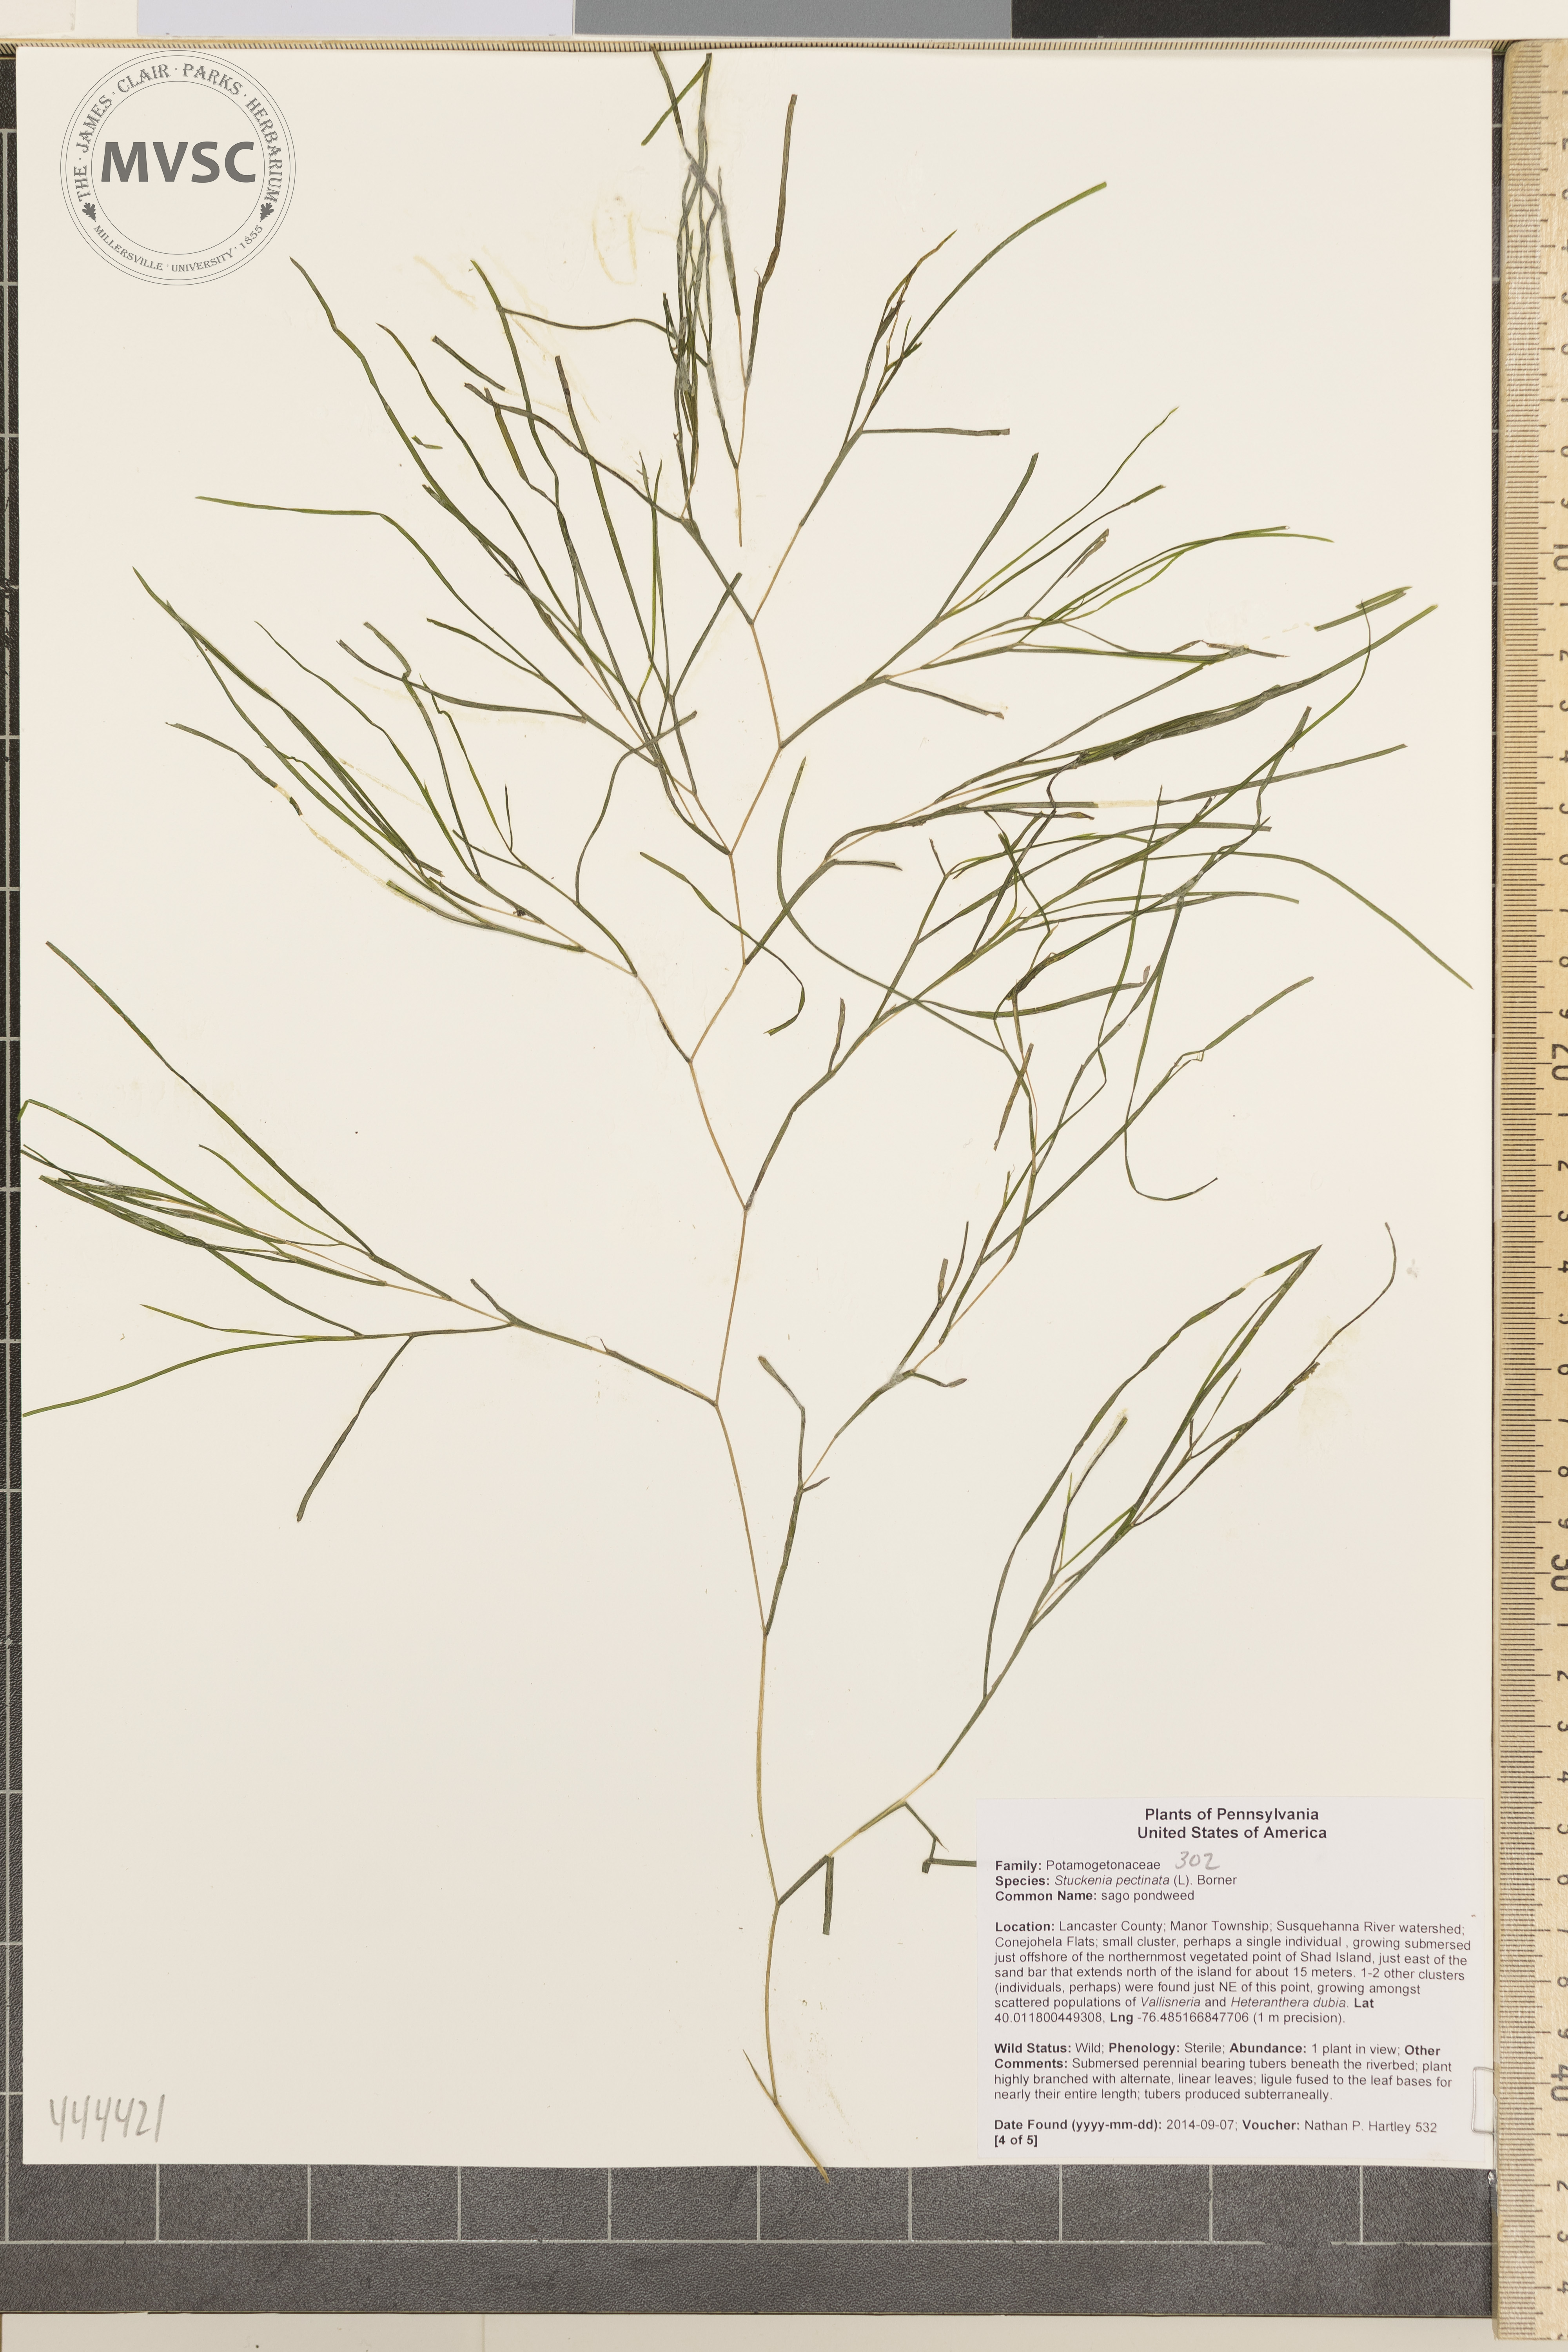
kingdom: Plantae
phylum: Tracheophyta
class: Liliopsida
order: Alismatales
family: Potamogetonaceae
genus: Stuckenia
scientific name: Stuckenia pectinata
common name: Sago pondweed
